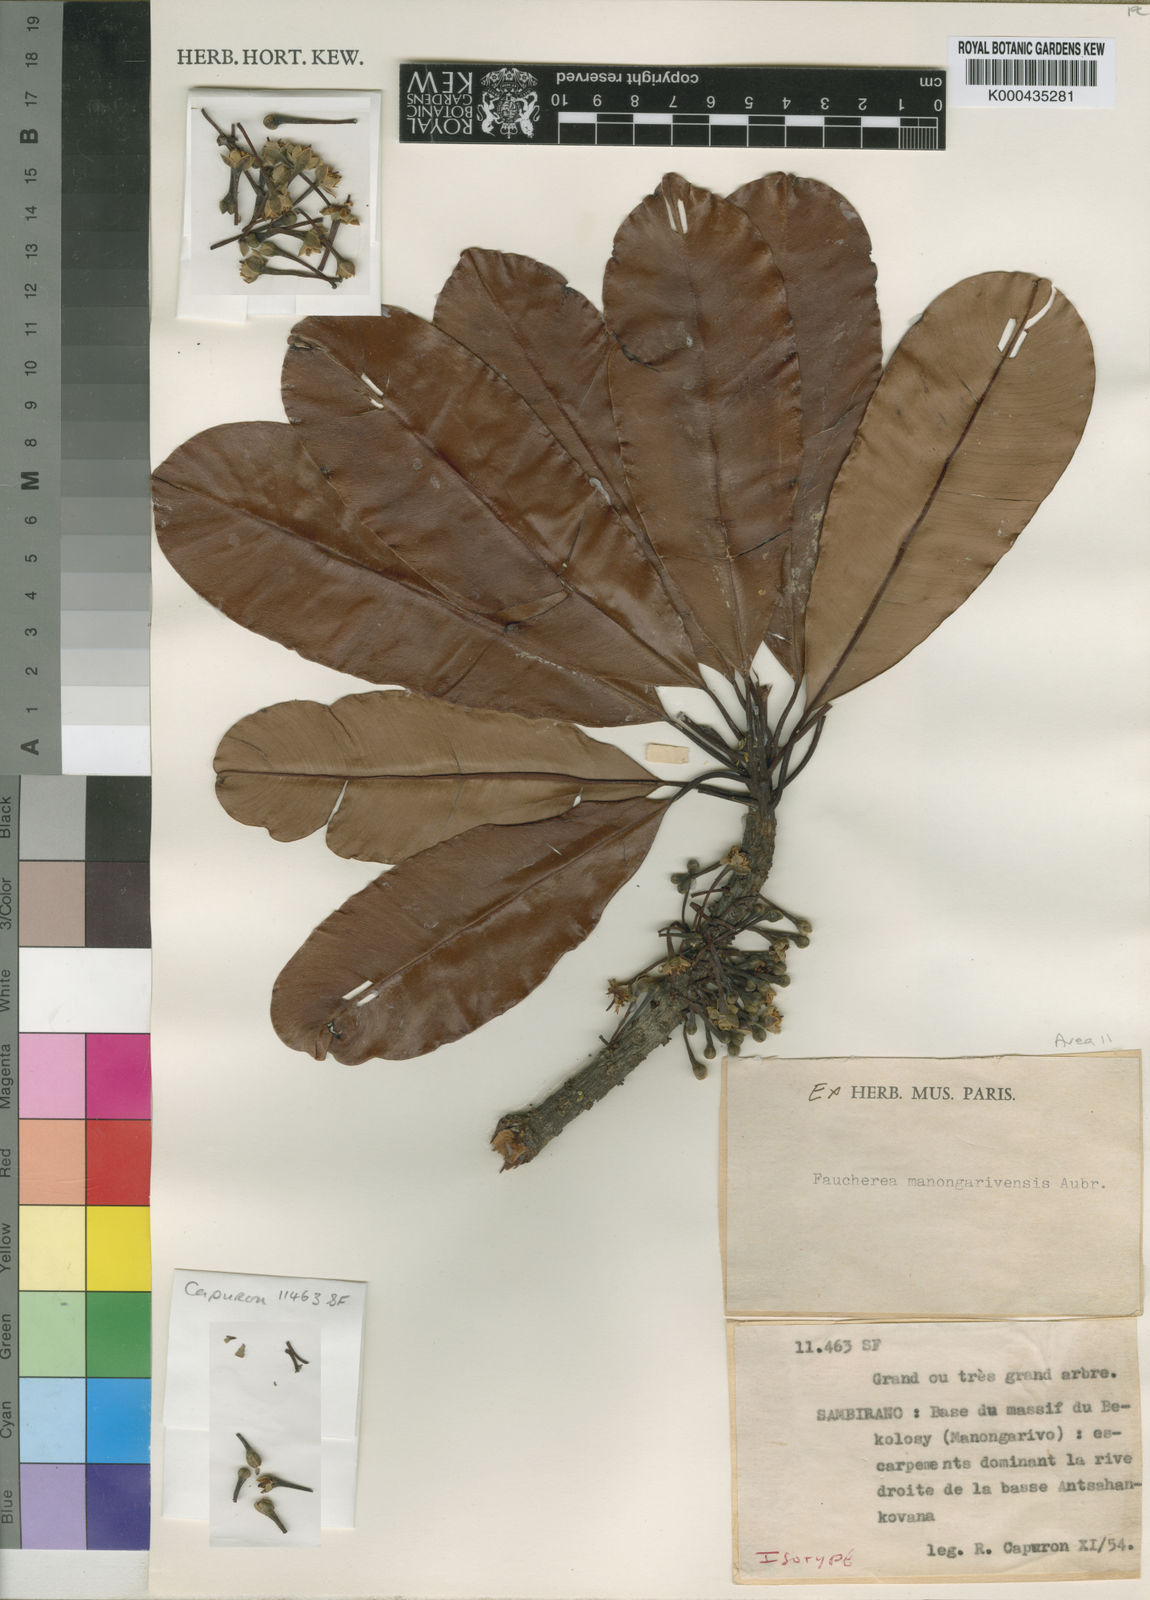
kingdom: Plantae
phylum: Tracheophyta
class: Magnoliopsida
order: Ericales
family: Sapotaceae
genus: Faucherea
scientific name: Faucherea manongarivensis
